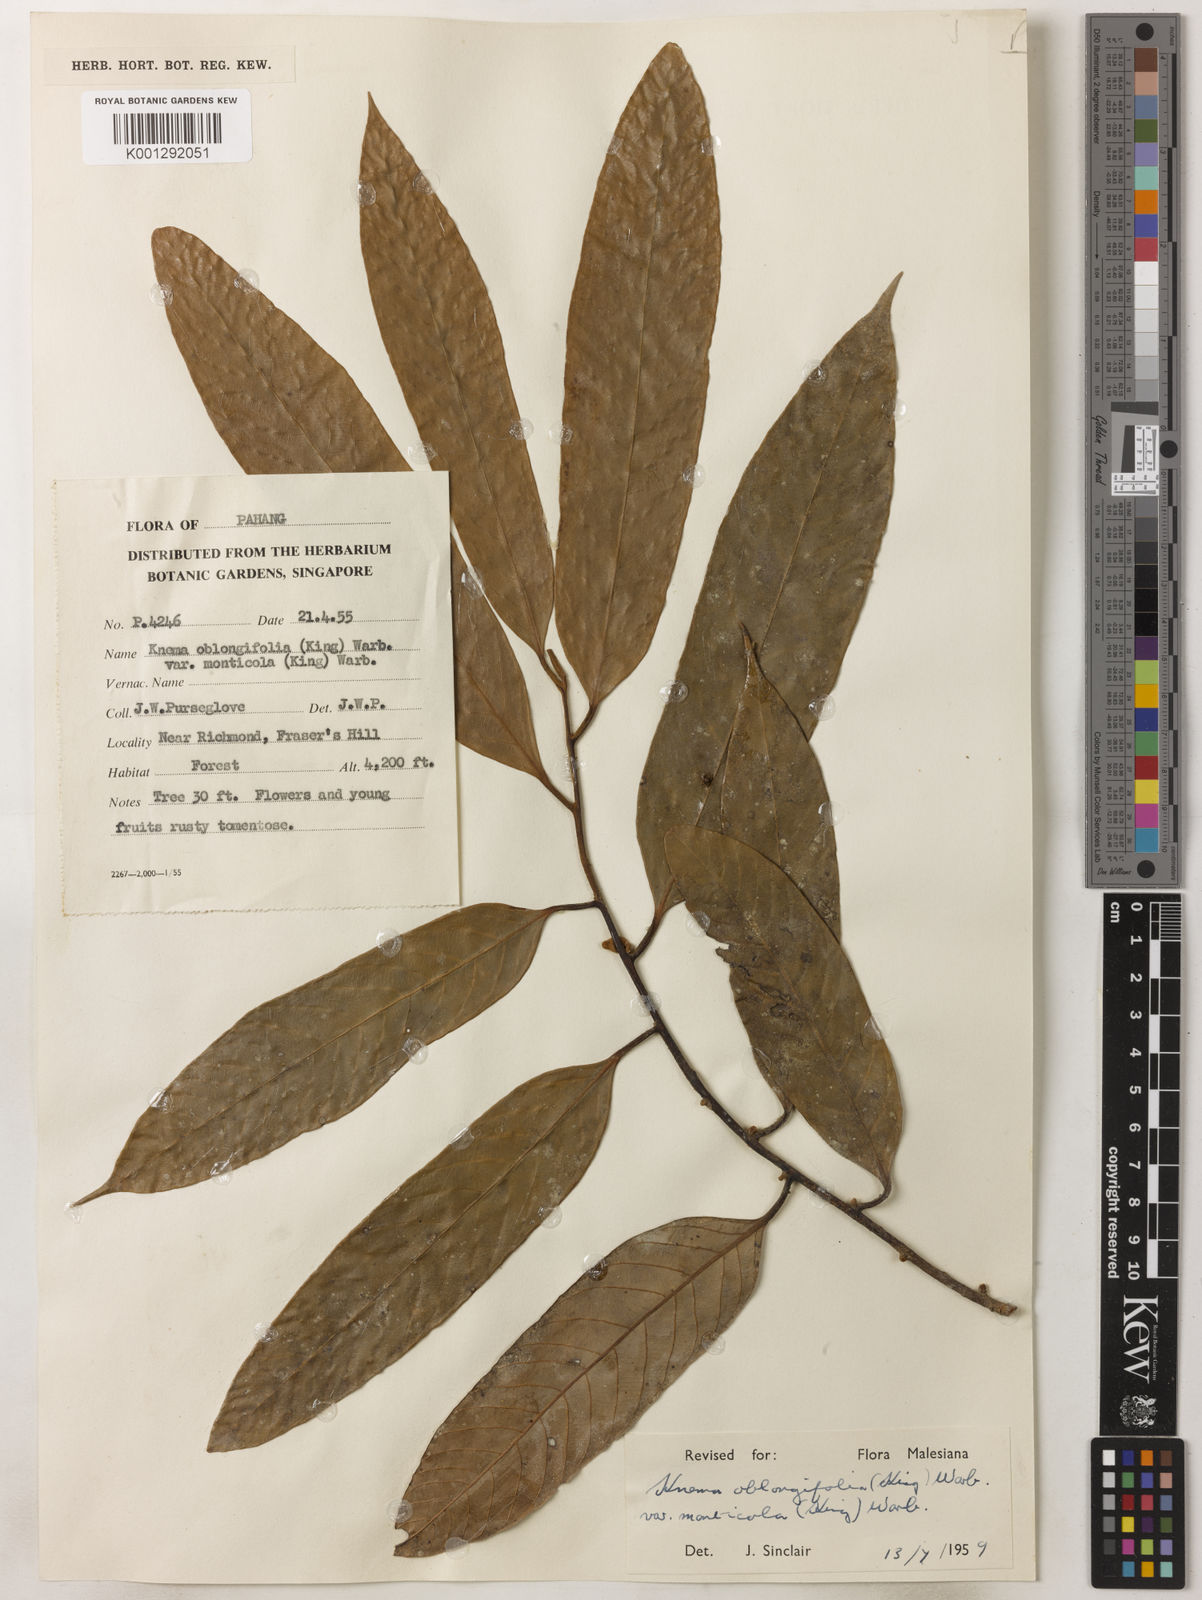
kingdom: Plantae
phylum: Tracheophyta
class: Magnoliopsida
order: Magnoliales
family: Myristicaceae
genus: Knema
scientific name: Knema
